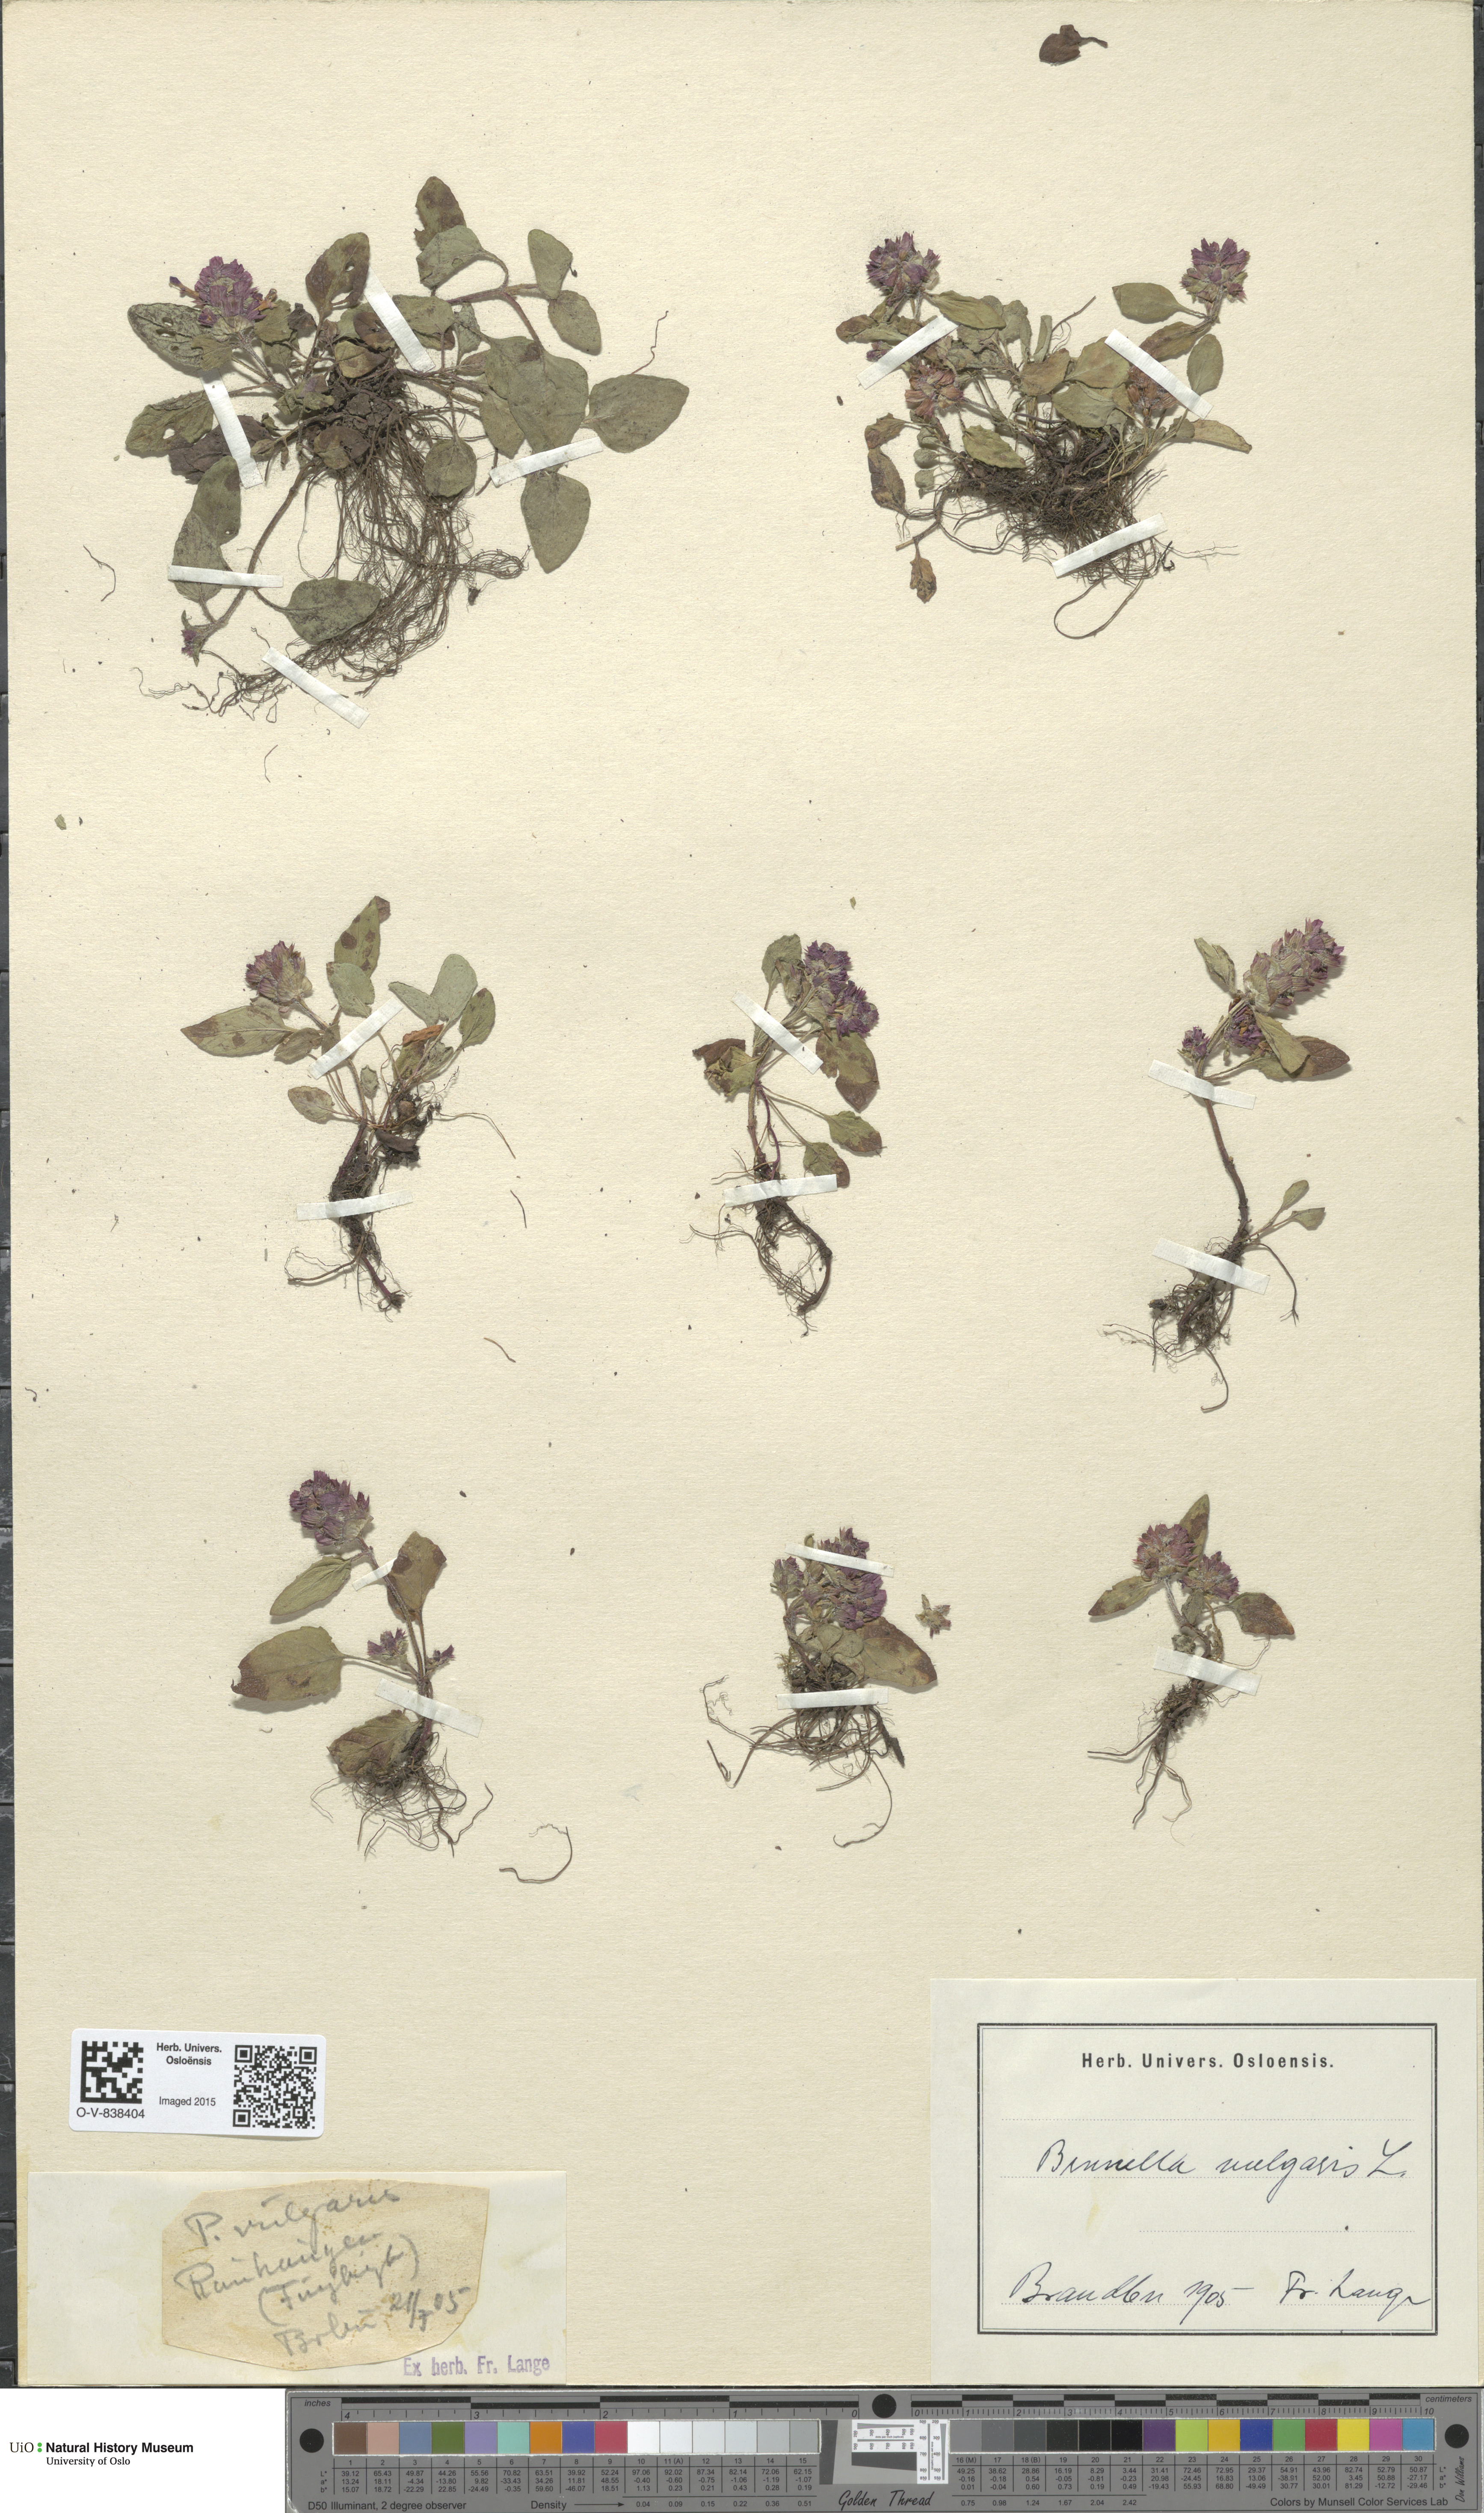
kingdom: Plantae
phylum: Tracheophyta
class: Magnoliopsida
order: Lamiales
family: Lamiaceae
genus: Prunella
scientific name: Prunella vulgaris
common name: Heal-all
